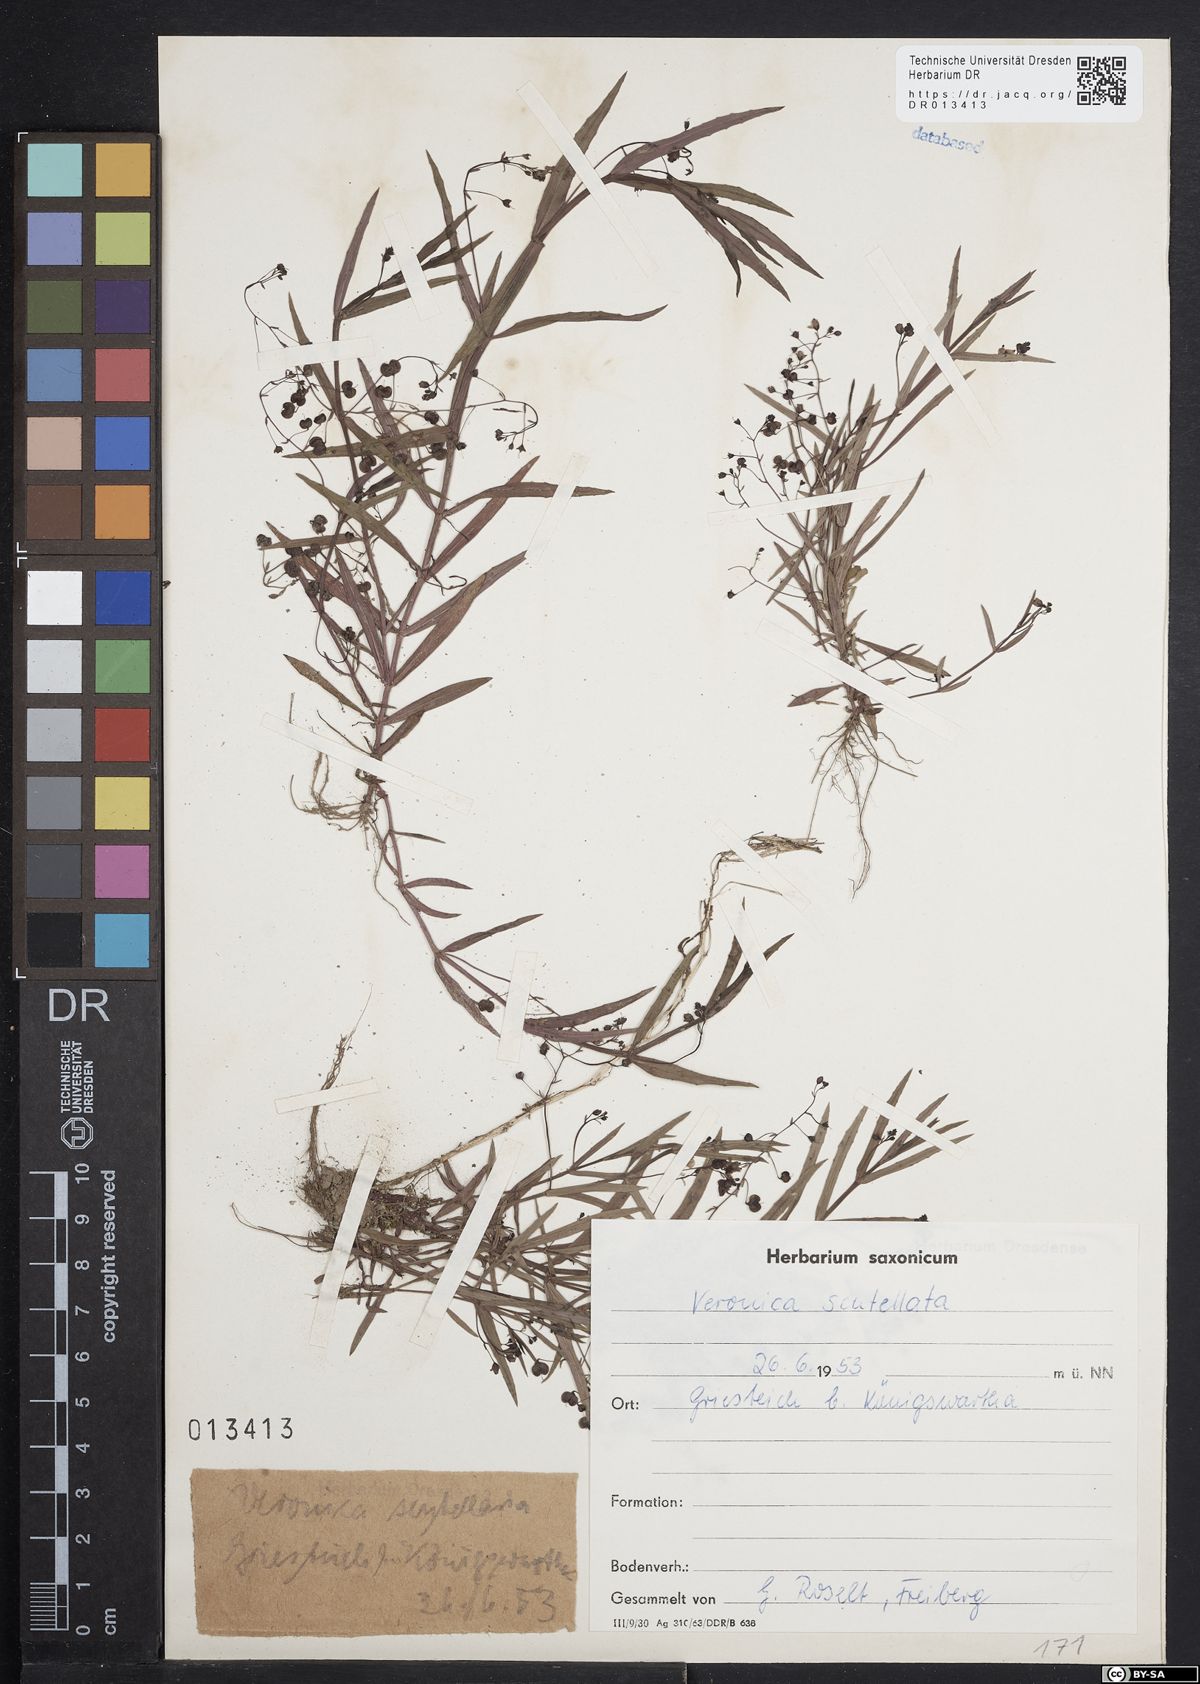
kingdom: Plantae
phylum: Tracheophyta
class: Magnoliopsida
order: Lamiales
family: Plantaginaceae
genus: Veronica
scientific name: Veronica scutellata
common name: Marsh speedwell
